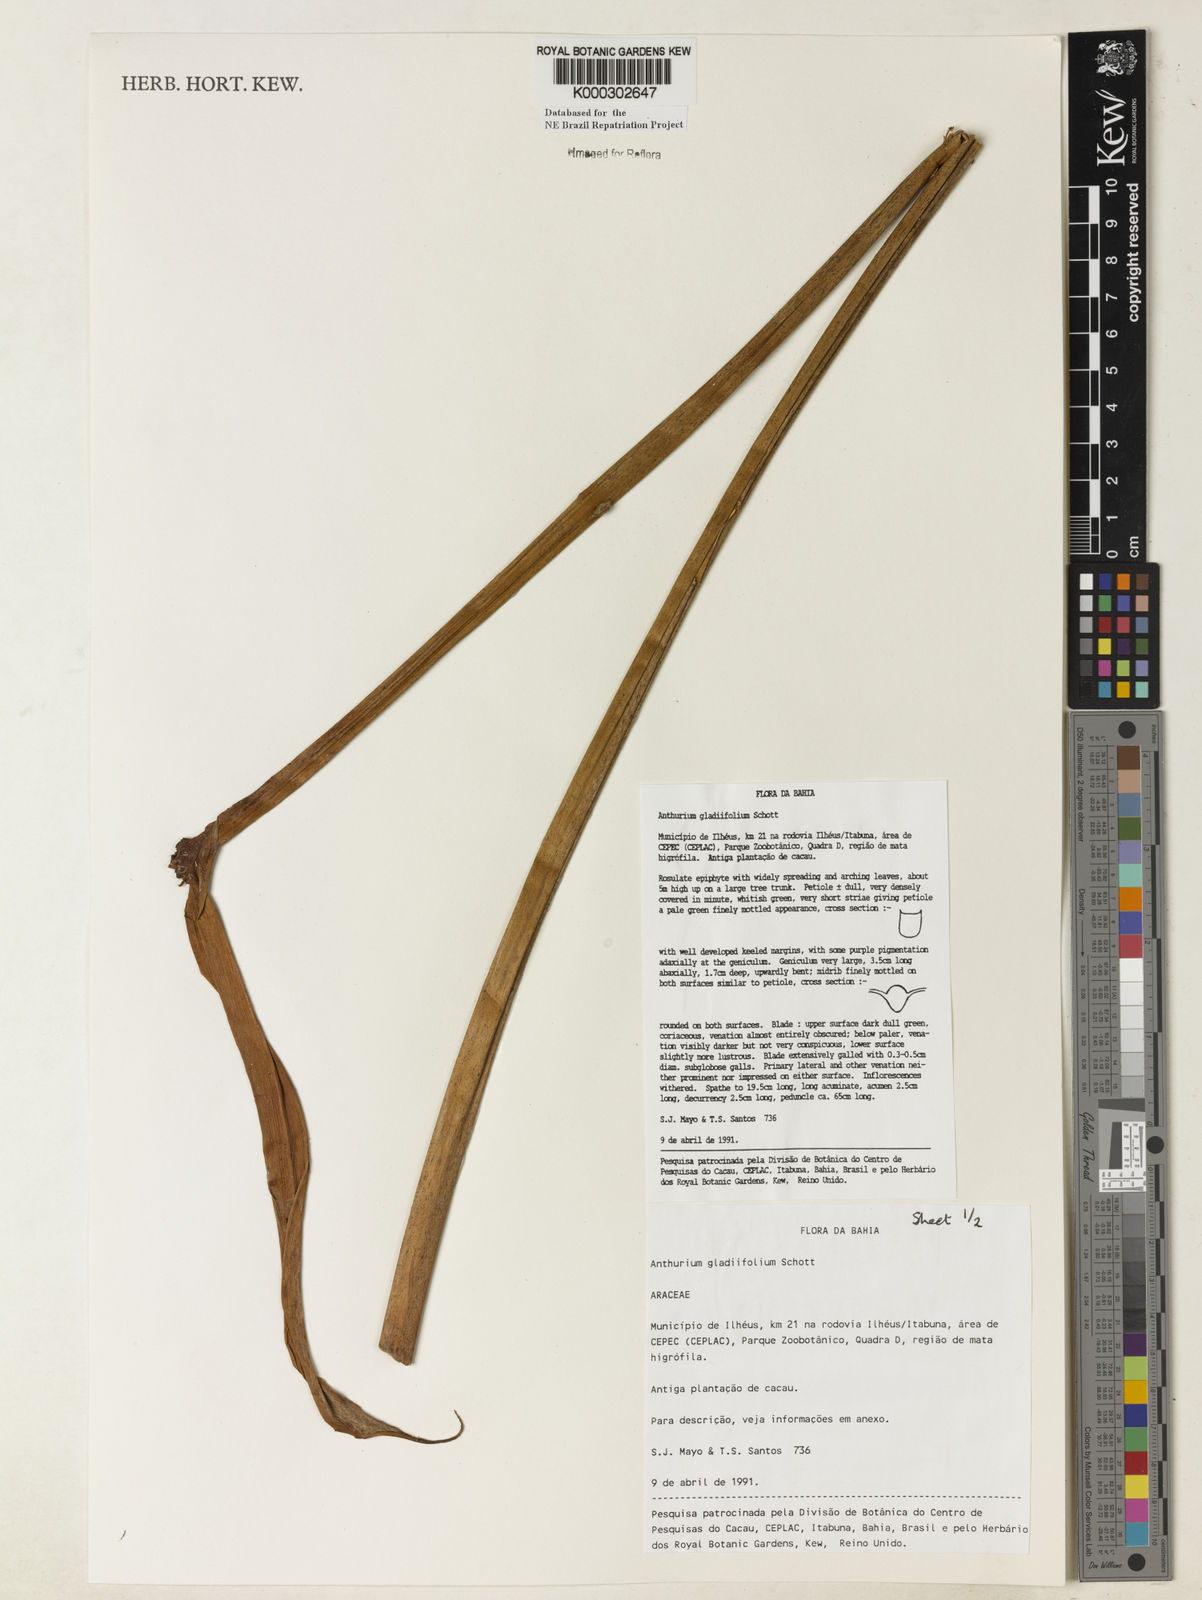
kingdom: Plantae
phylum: Tracheophyta
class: Liliopsida
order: Alismatales
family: Araceae
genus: Anthurium
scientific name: Anthurium gladiifolium
